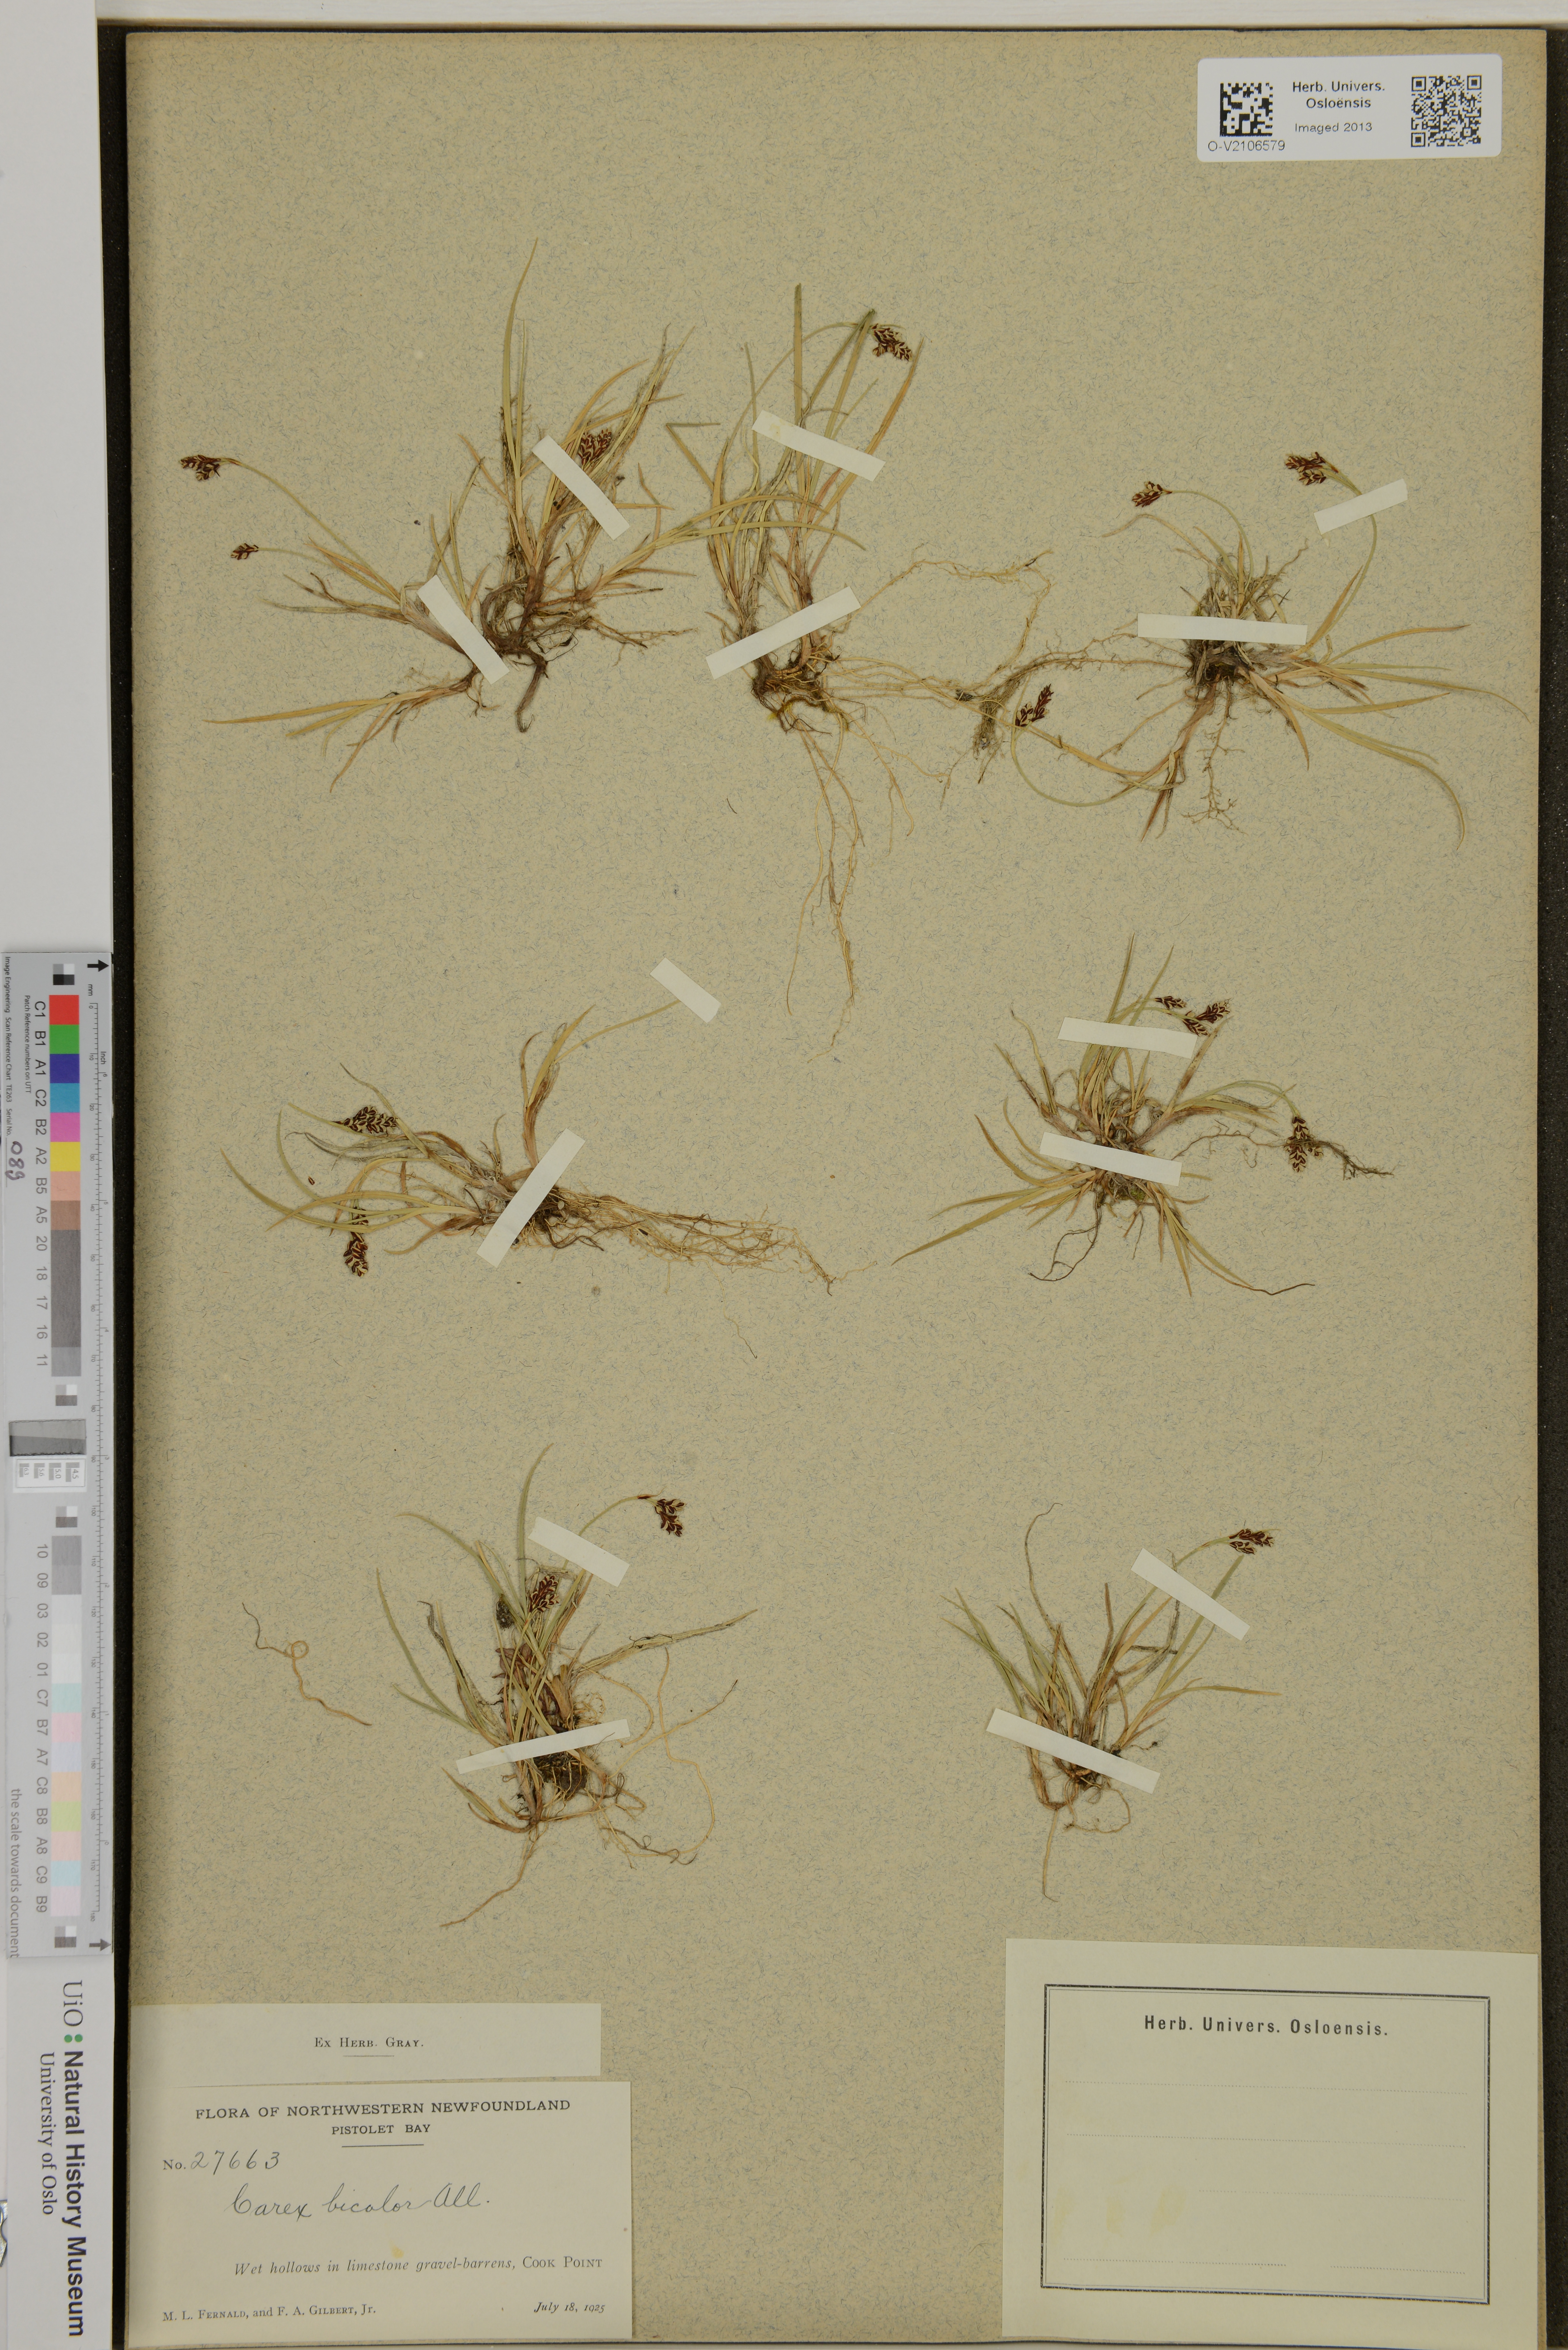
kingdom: Plantae
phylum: Tracheophyta
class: Liliopsida
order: Poales
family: Cyperaceae
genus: Carex
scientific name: Carex bicolor
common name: Bicoloured sedge
